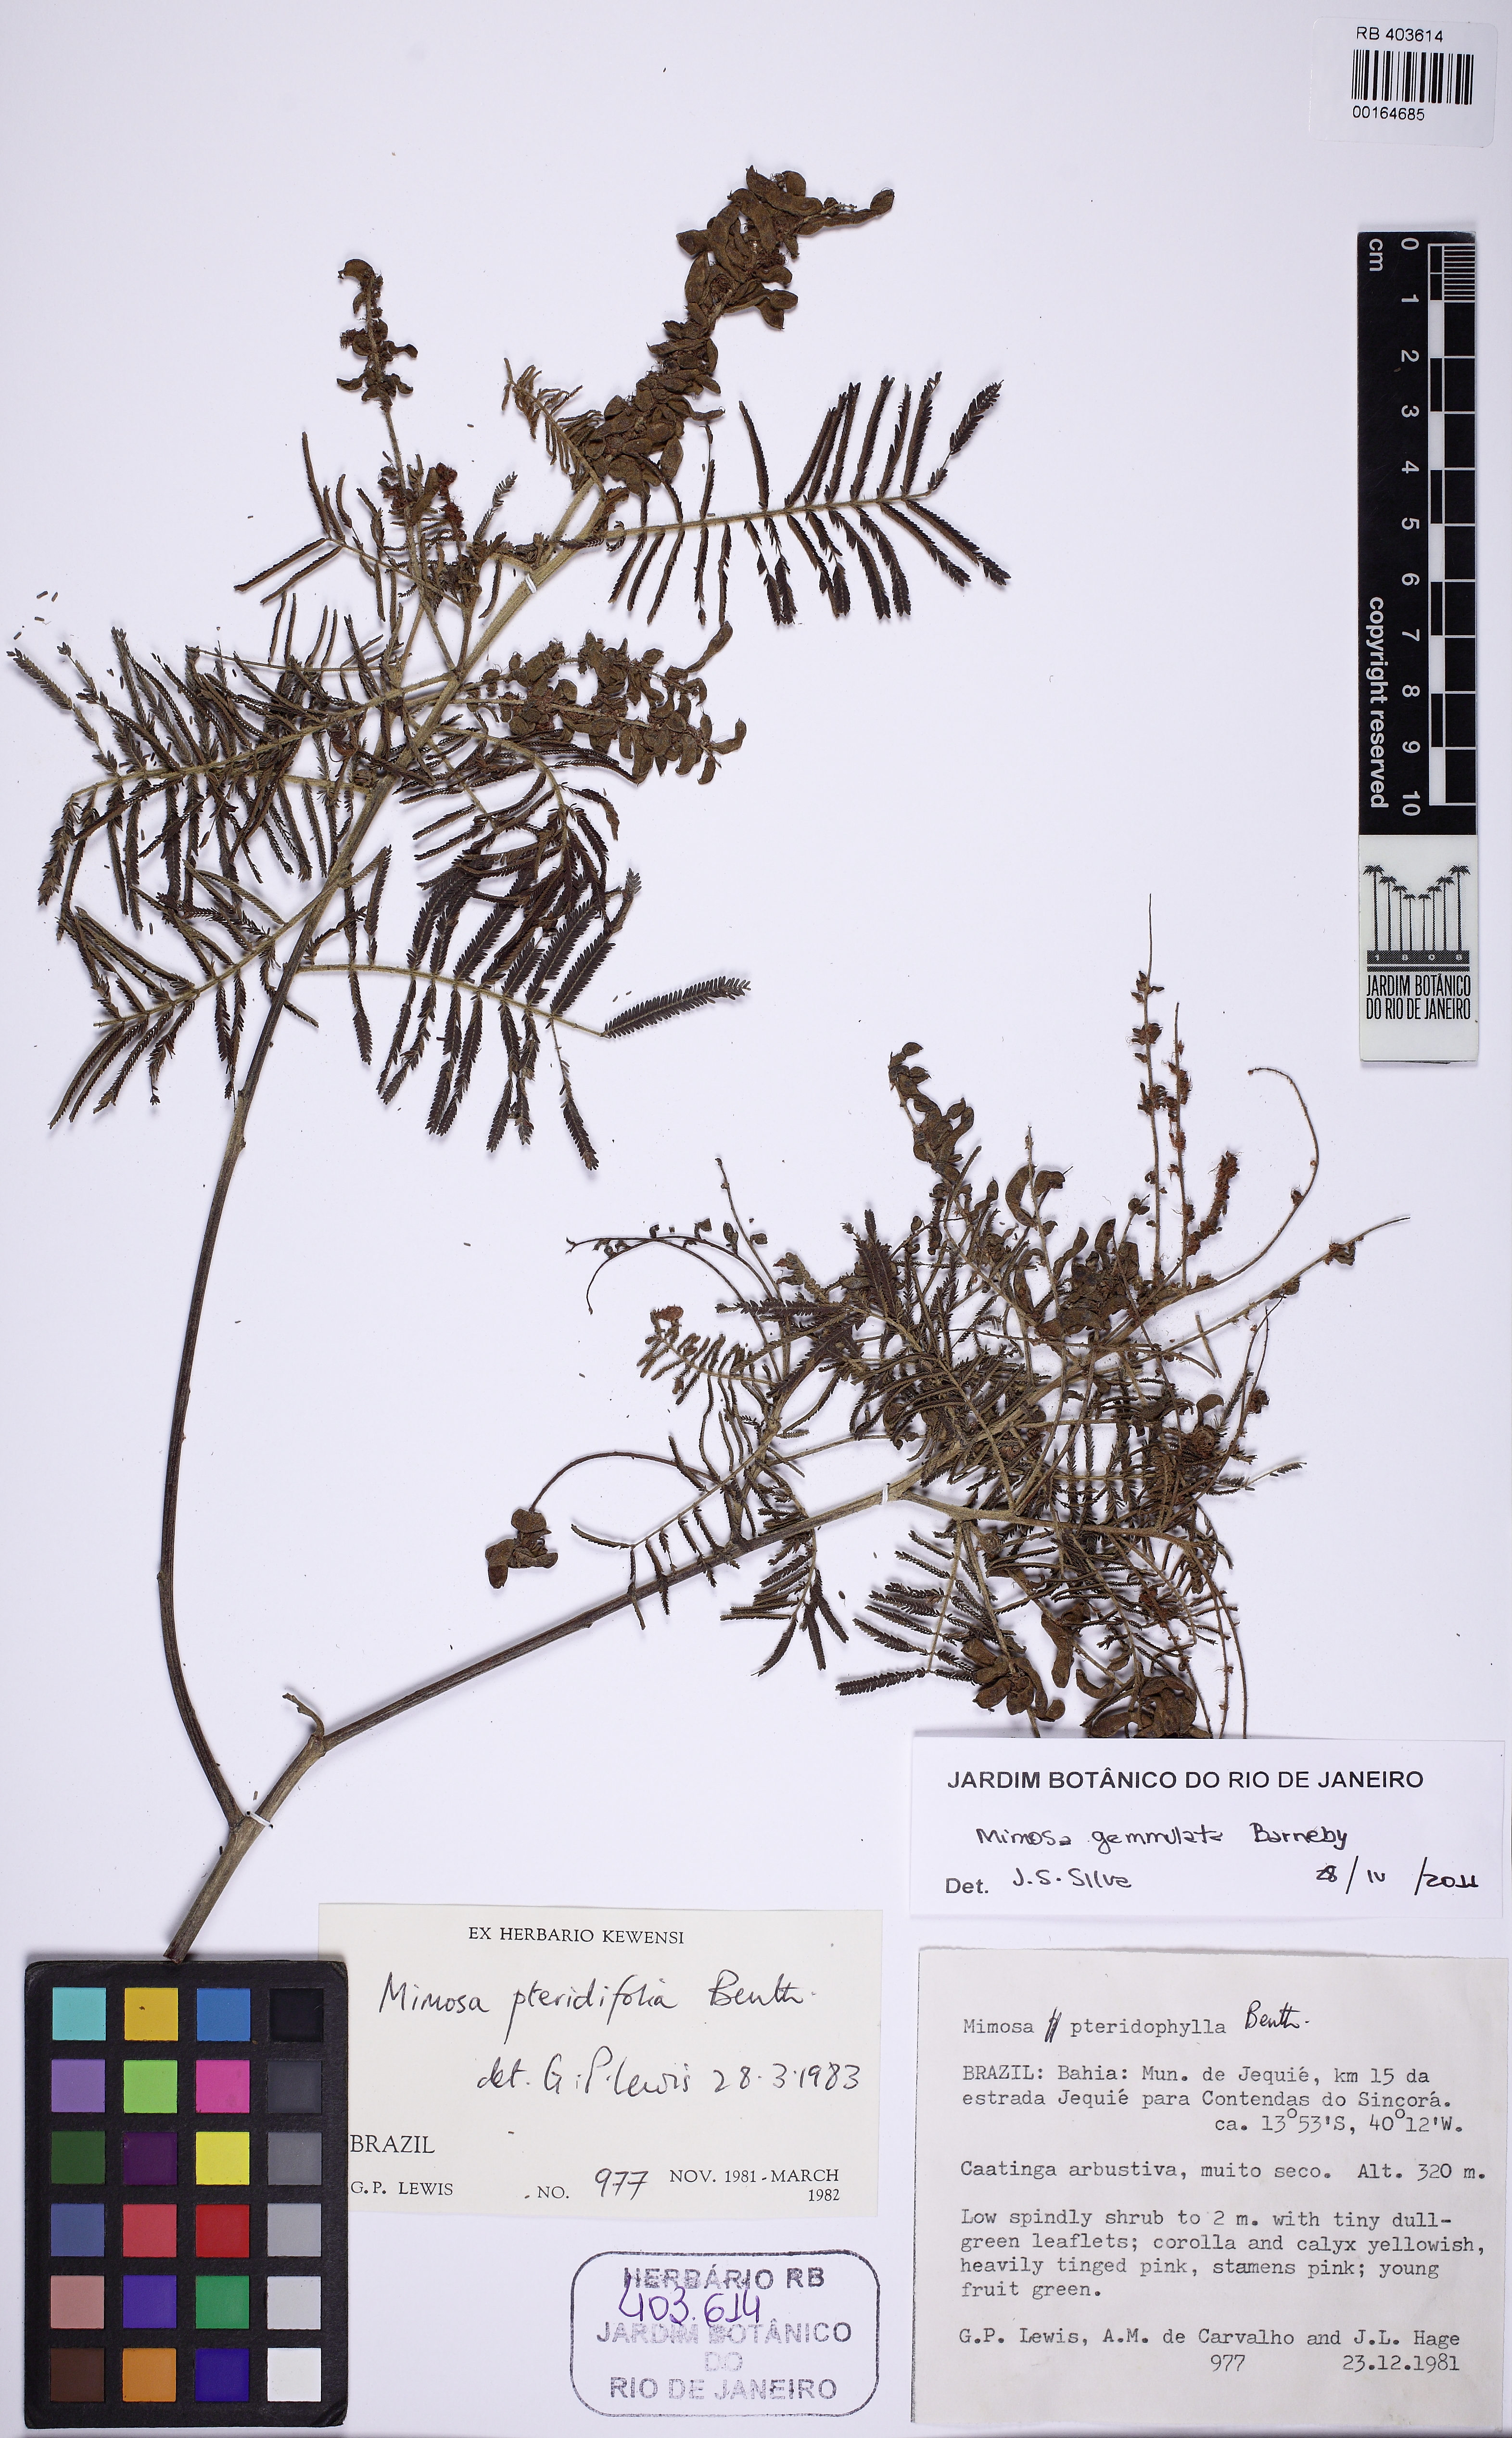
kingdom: Plantae
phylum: Tracheophyta
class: Magnoliopsida
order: Fabales
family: Fabaceae
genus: Mimosa
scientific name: Mimosa gemmulata
